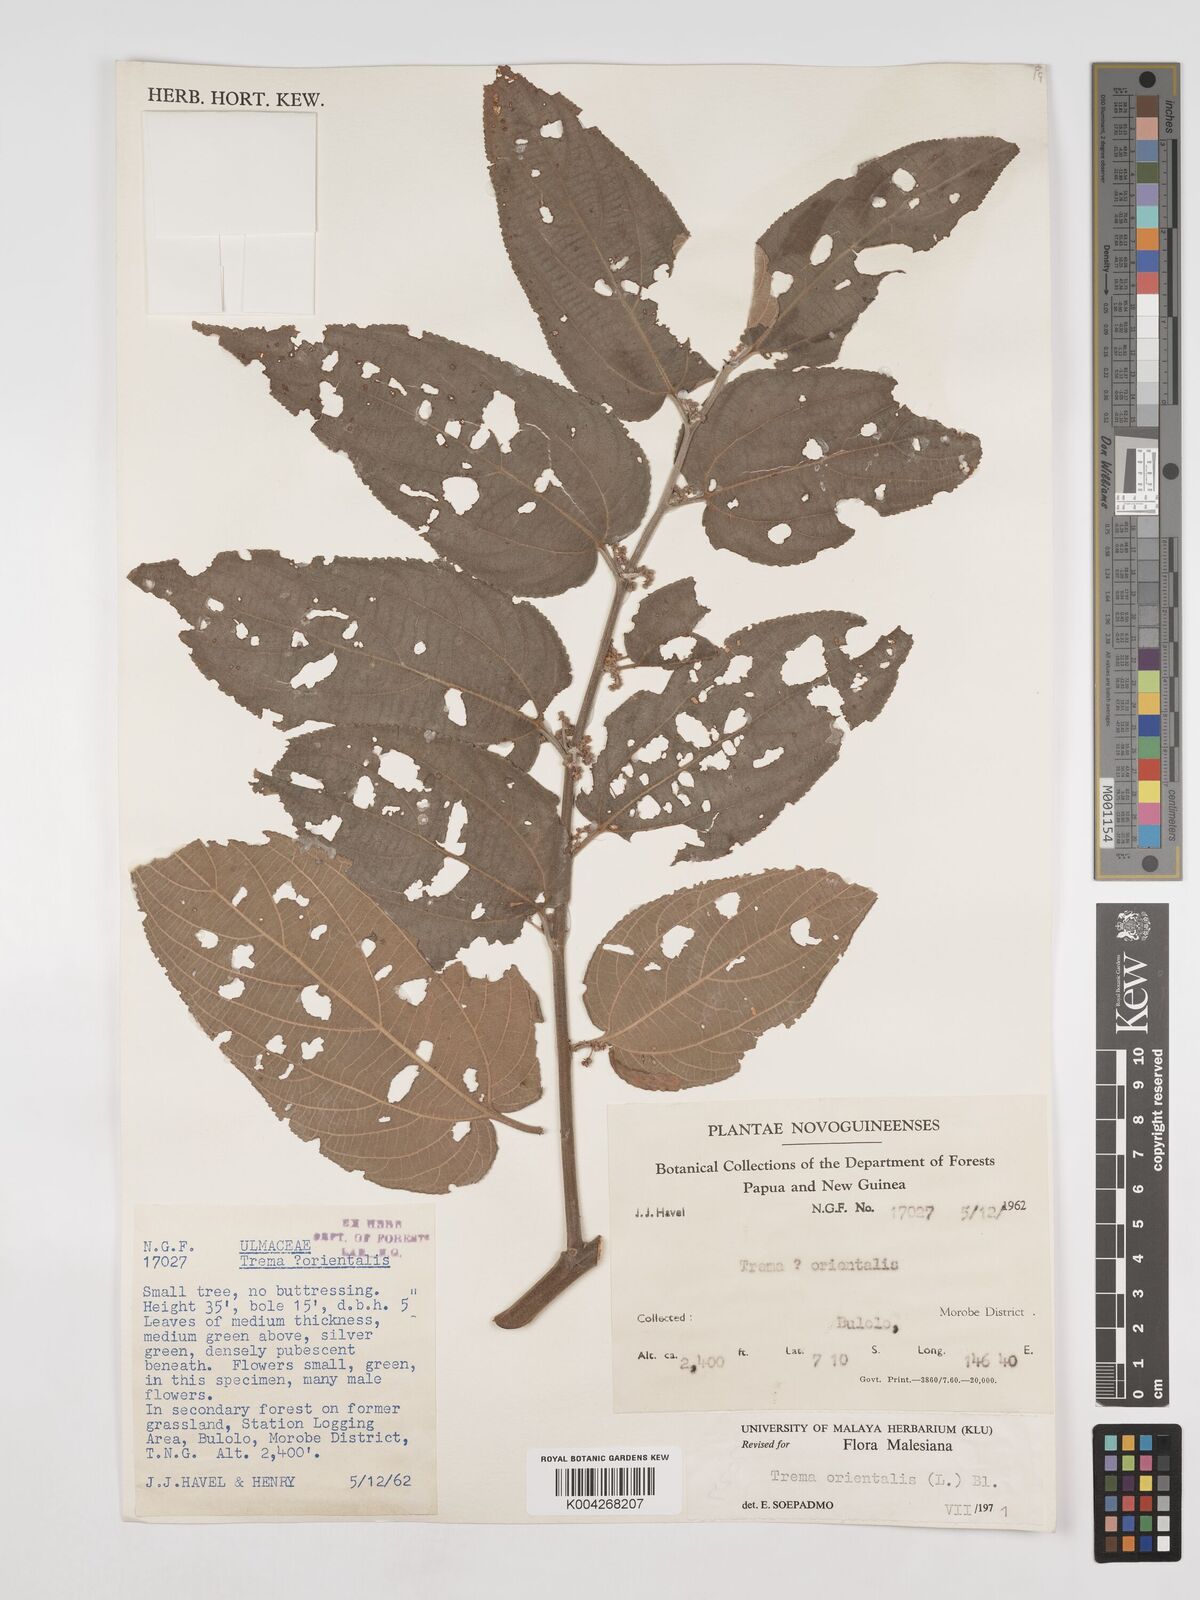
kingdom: Plantae
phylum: Tracheophyta
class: Magnoliopsida
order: Rosales
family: Cannabaceae
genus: Trema
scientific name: Trema orientale
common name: Indian charcoal tree
